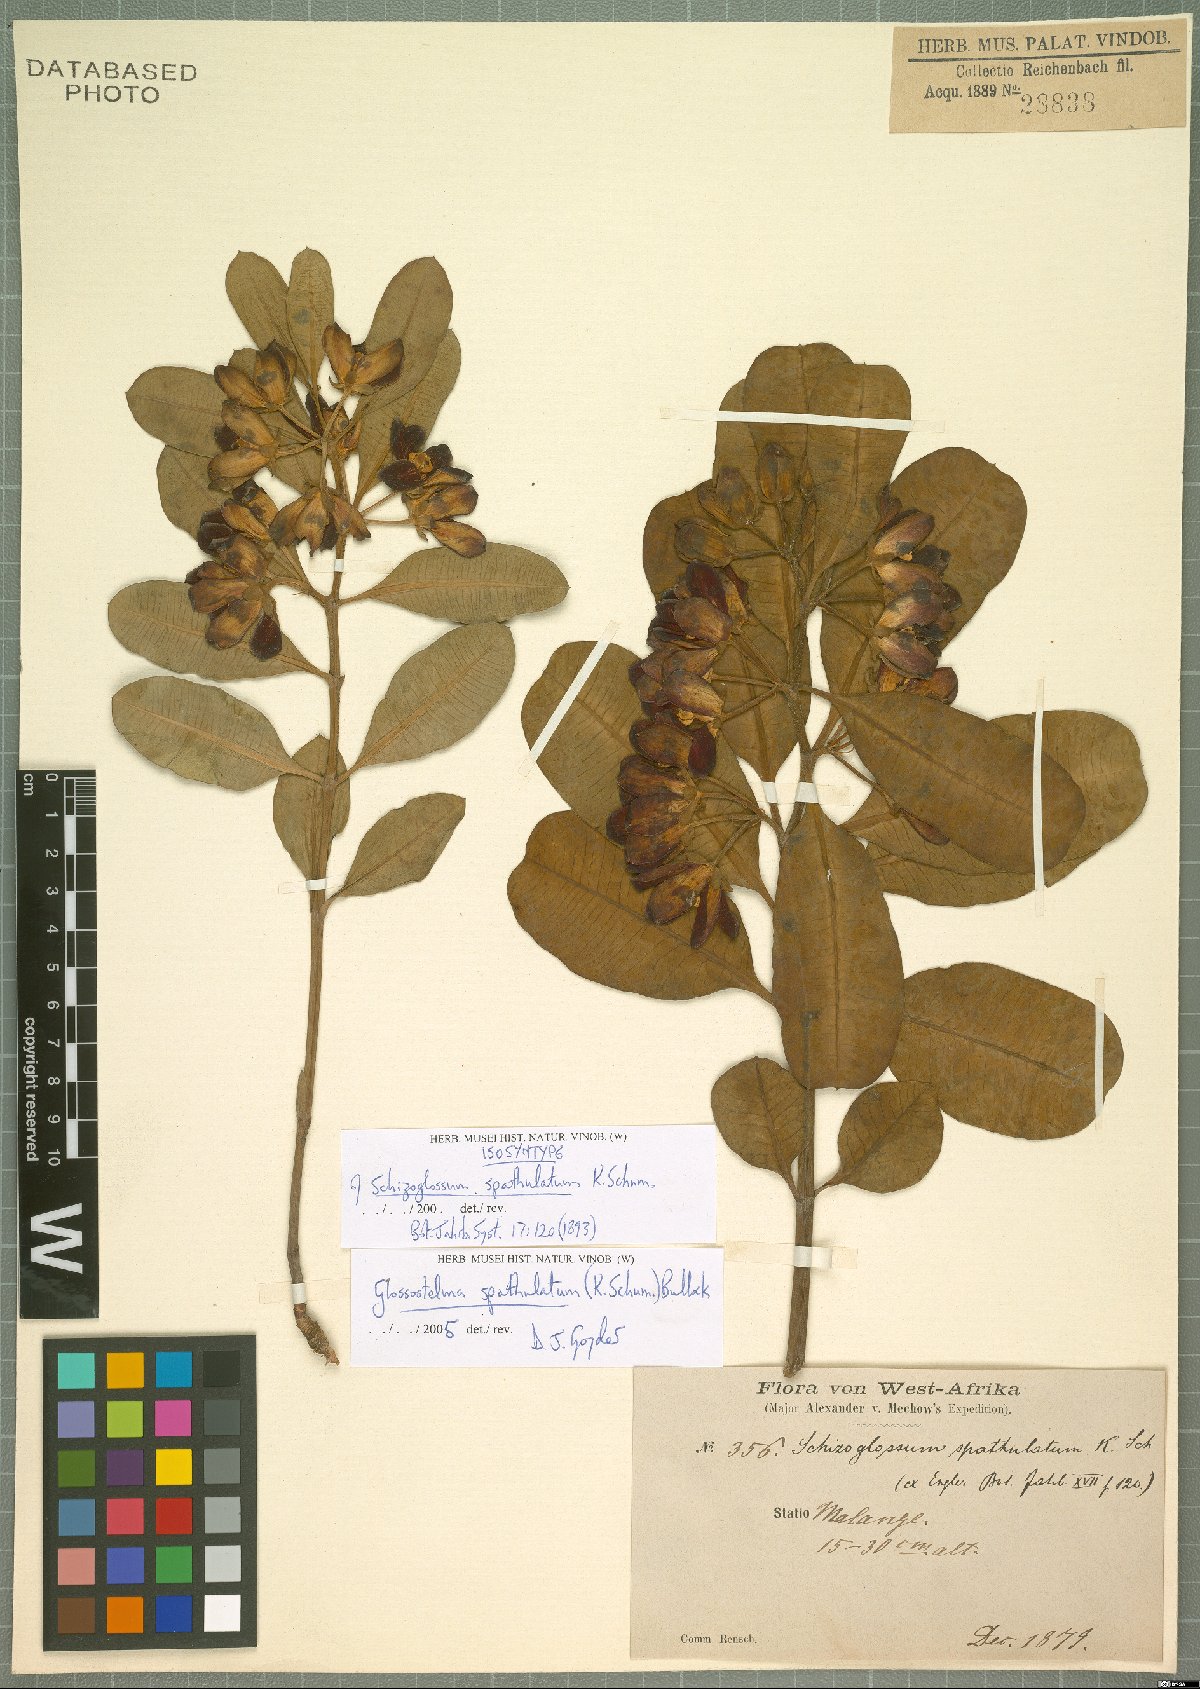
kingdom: Plantae
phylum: Tracheophyta
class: Magnoliopsida
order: Gentianales
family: Apocynaceae
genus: Glossostelma
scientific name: Glossostelma spathulatum
